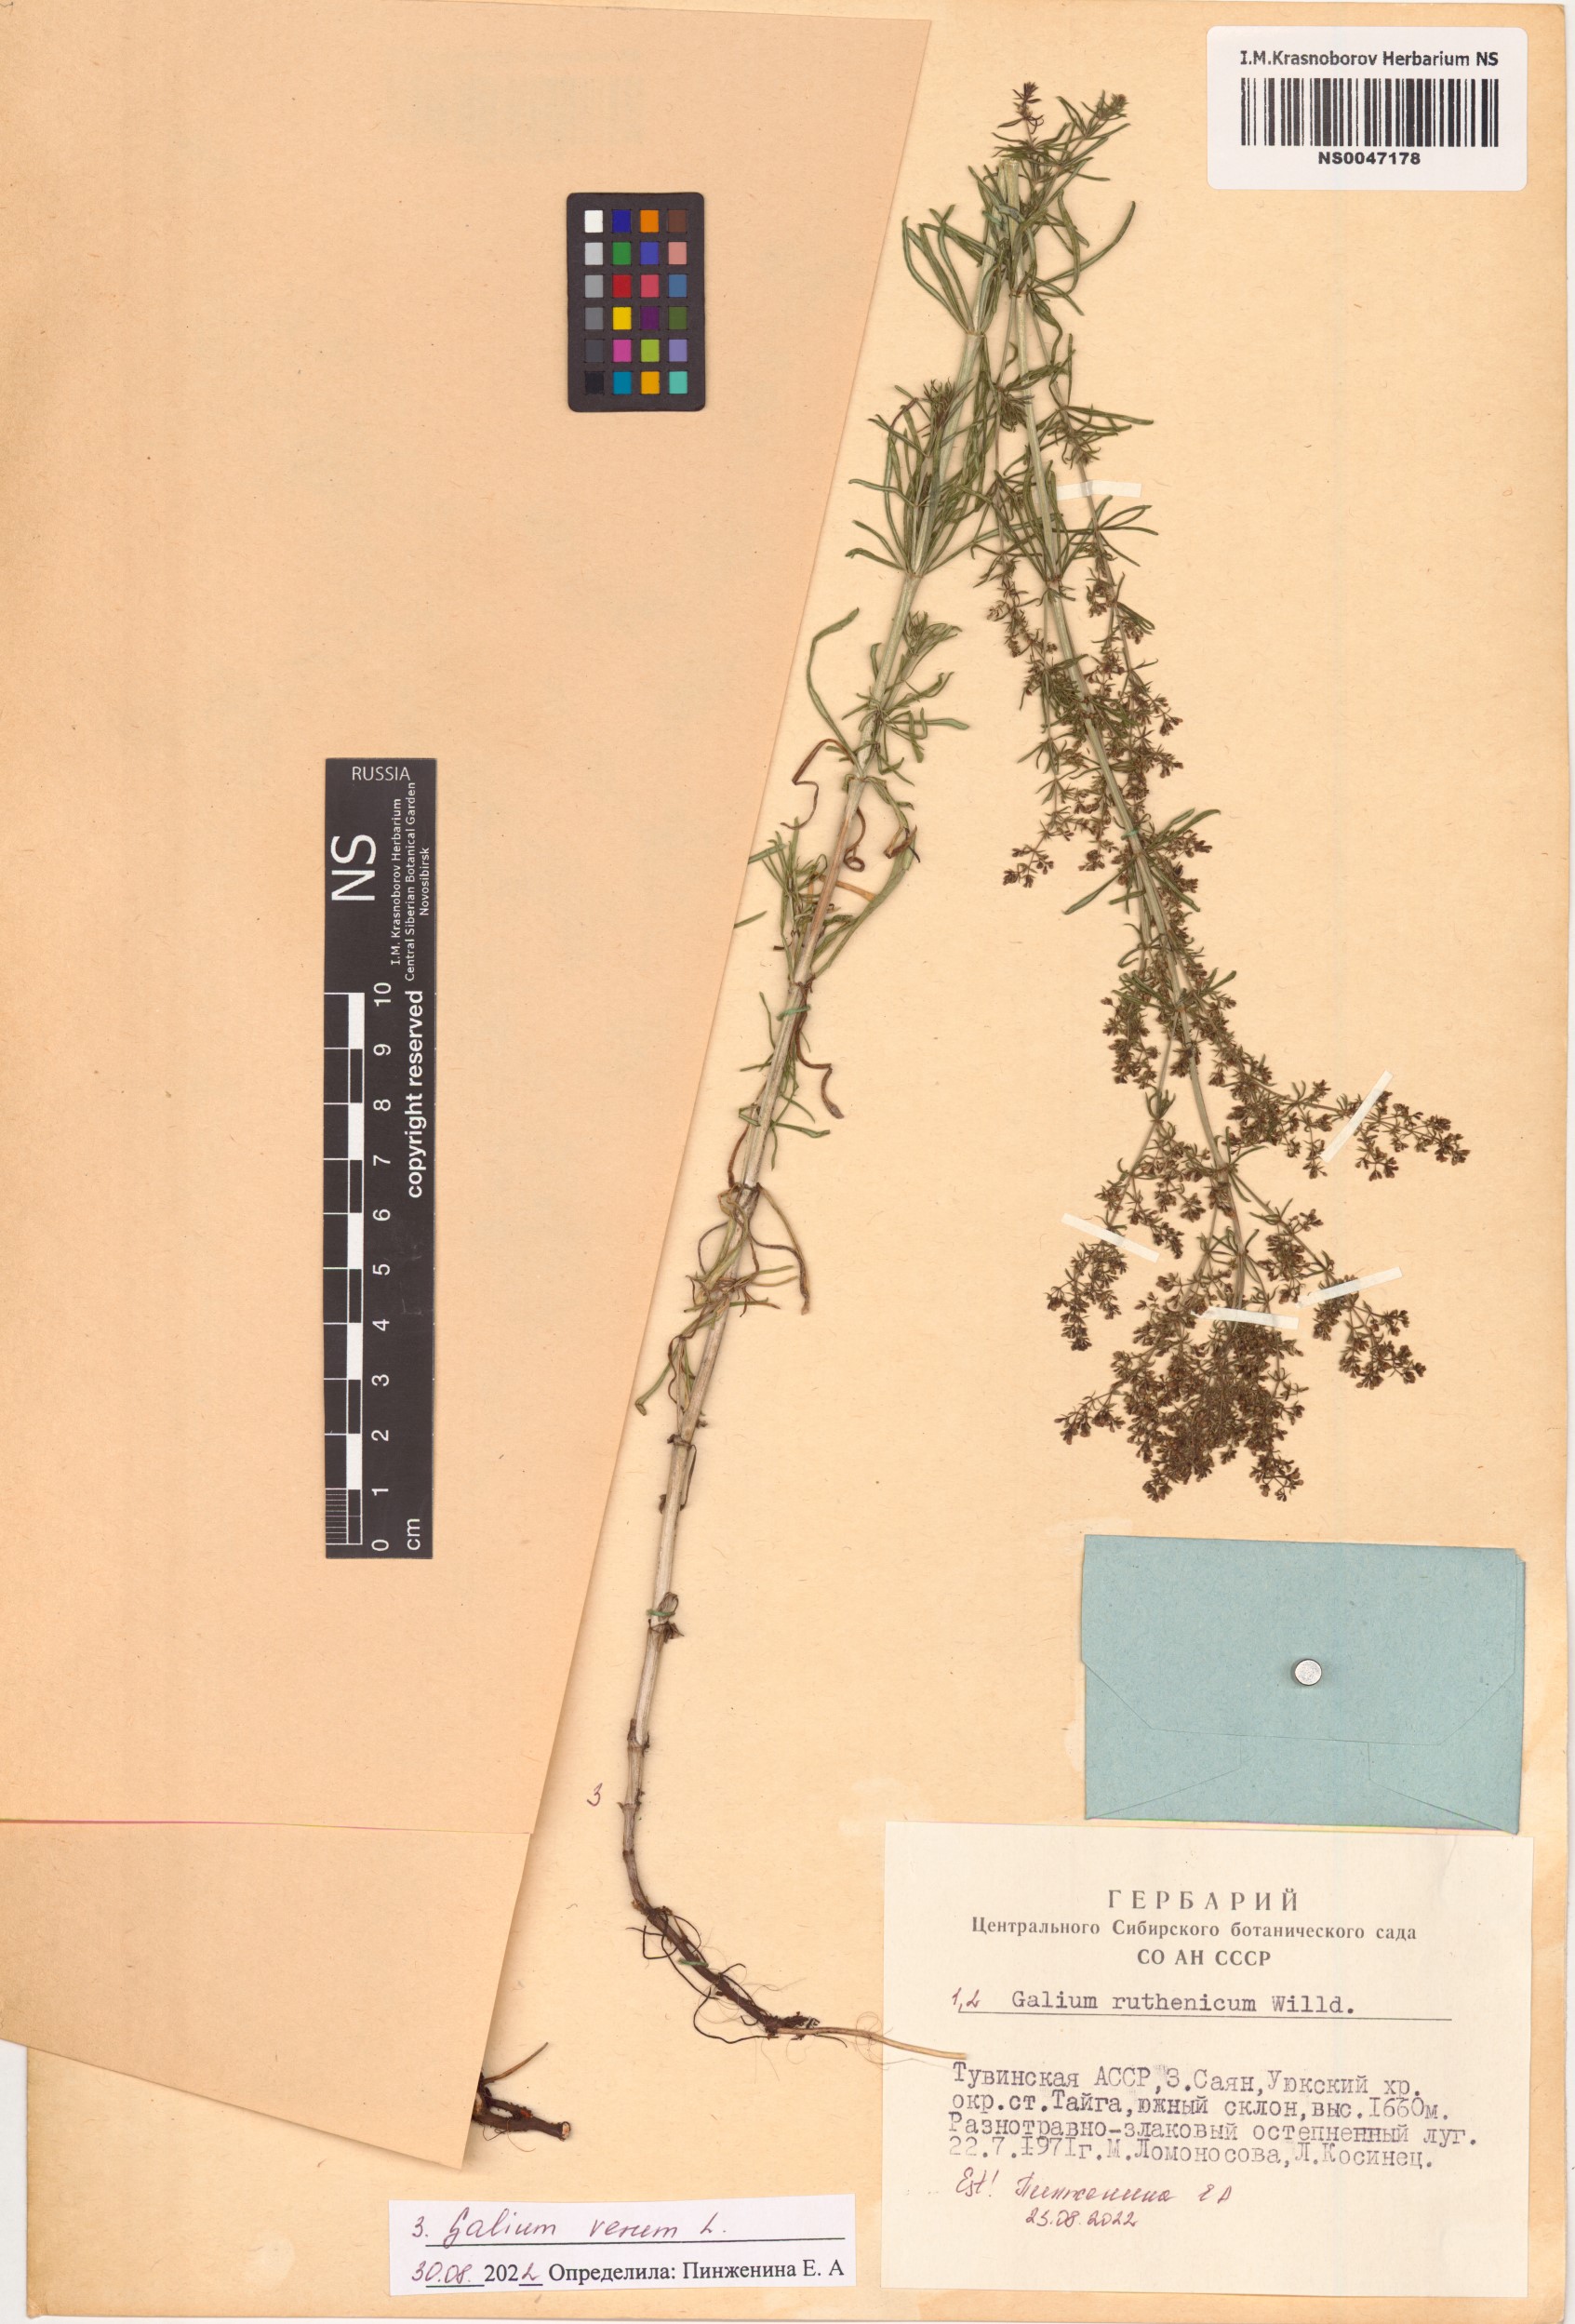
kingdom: Plantae
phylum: Tracheophyta
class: Magnoliopsida
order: Gentianales
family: Rubiaceae
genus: Galium
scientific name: Galium verum
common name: Lady's bedstraw
